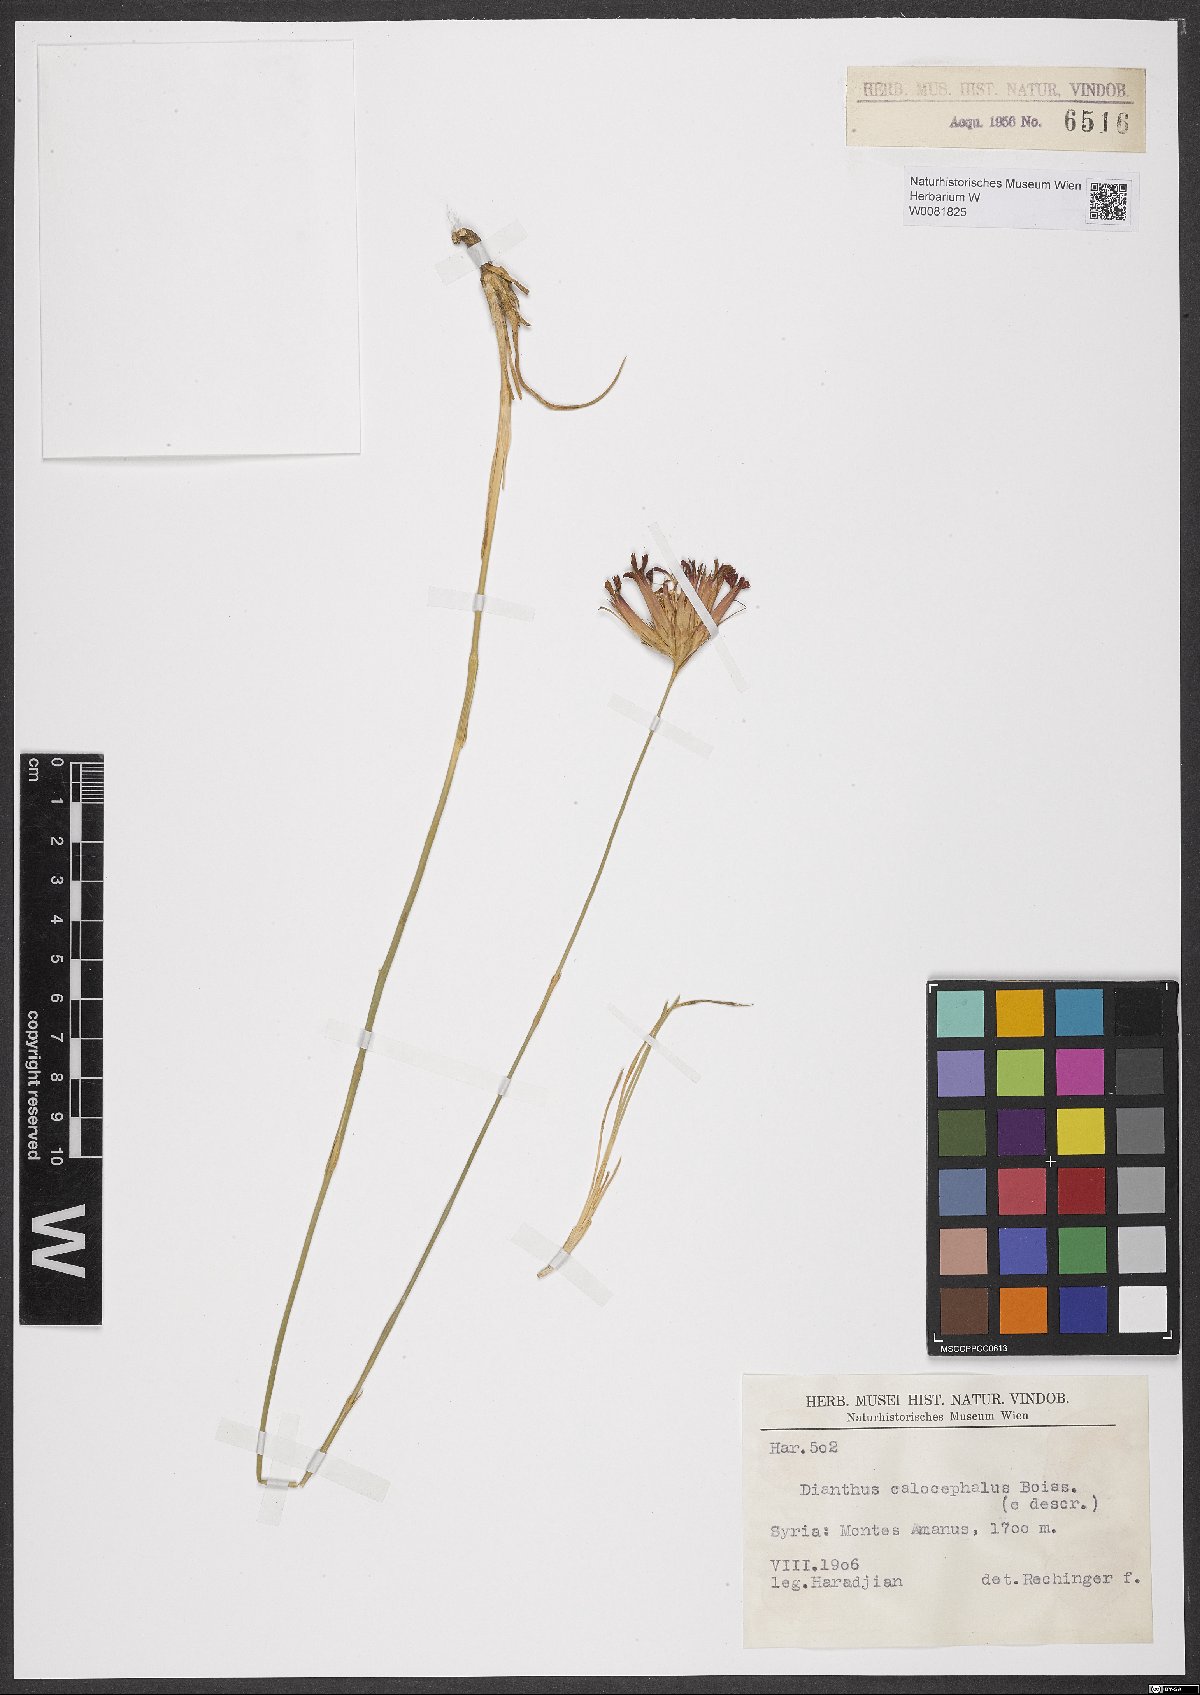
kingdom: Plantae
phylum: Tracheophyta
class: Magnoliopsida
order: Caryophyllales
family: Caryophyllaceae
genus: Dianthus
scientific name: Dianthus cruentus
